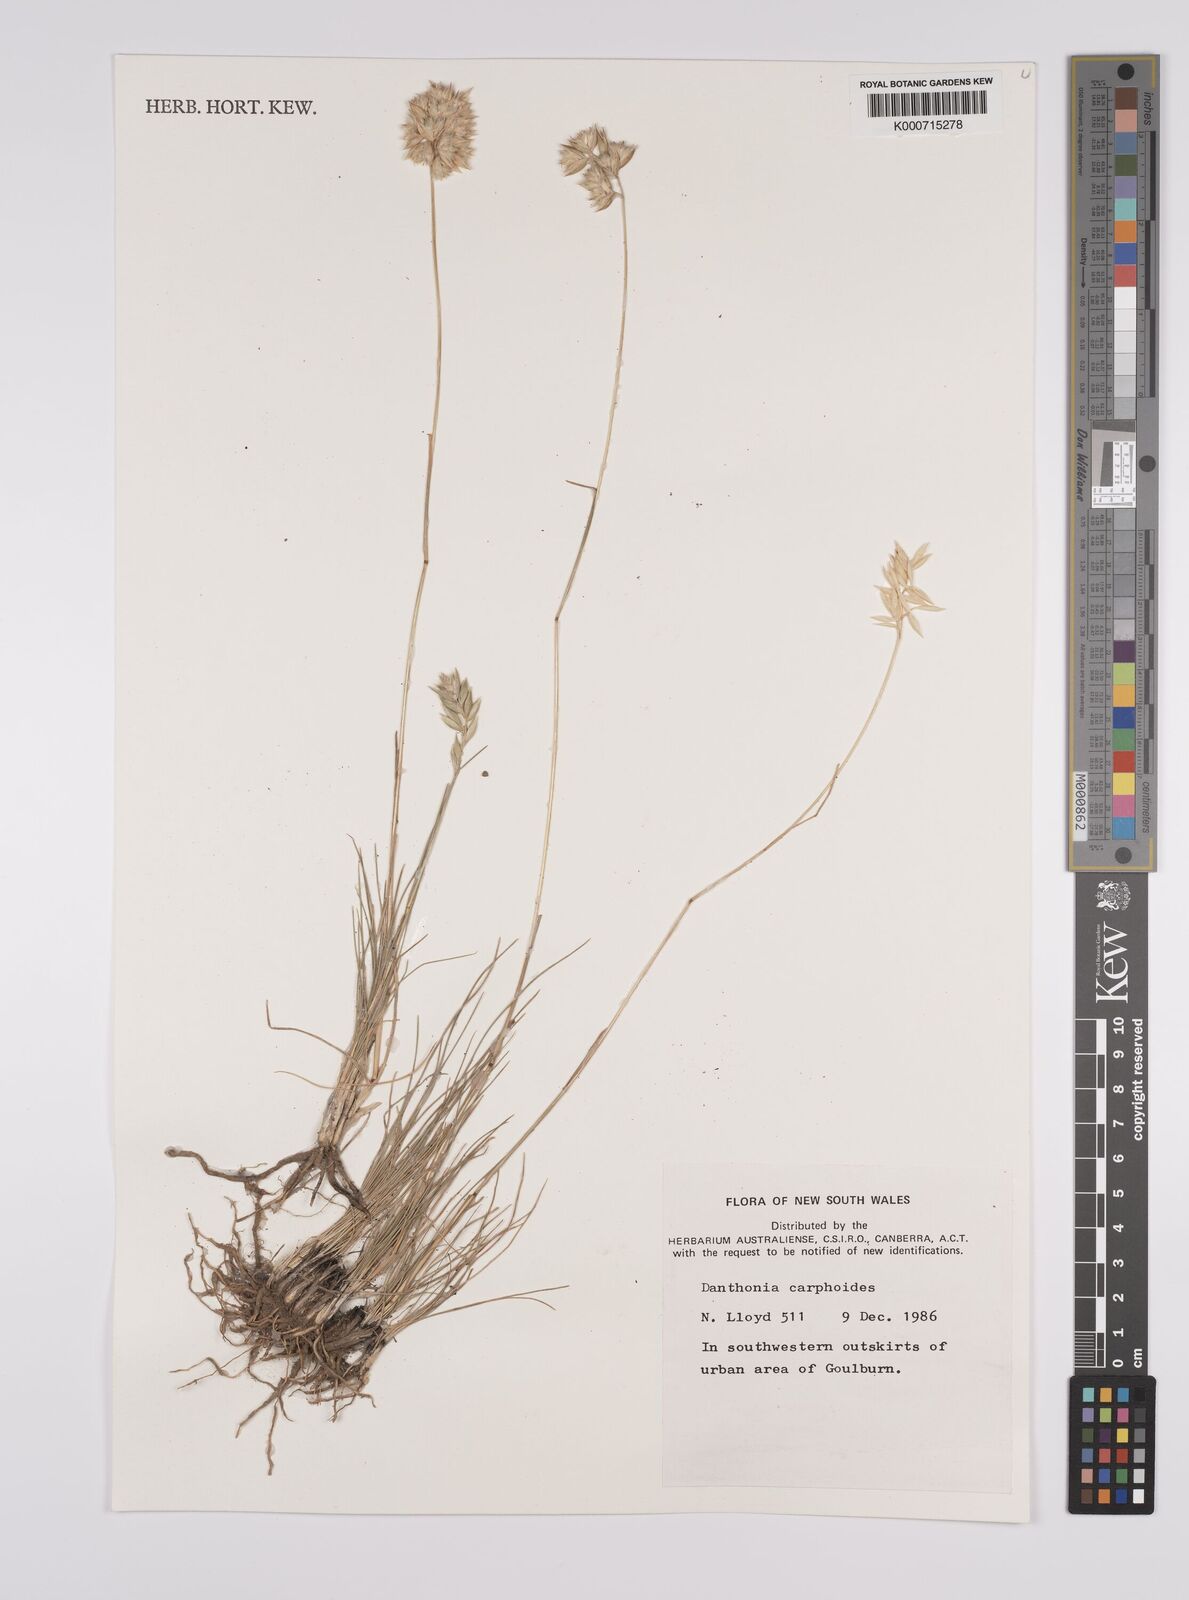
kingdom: Plantae
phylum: Tracheophyta
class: Liliopsida
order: Poales
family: Poaceae
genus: Rytidosperma
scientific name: Rytidosperma carphoides
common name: Short wallaby grass
